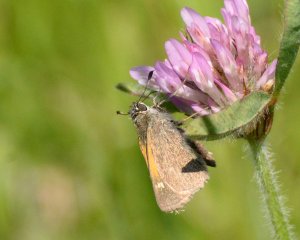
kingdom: Animalia
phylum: Arthropoda
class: Insecta
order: Lepidoptera
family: Hesperiidae
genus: Polites
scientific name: Polites themistocles
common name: Tawny-edged Skipper
